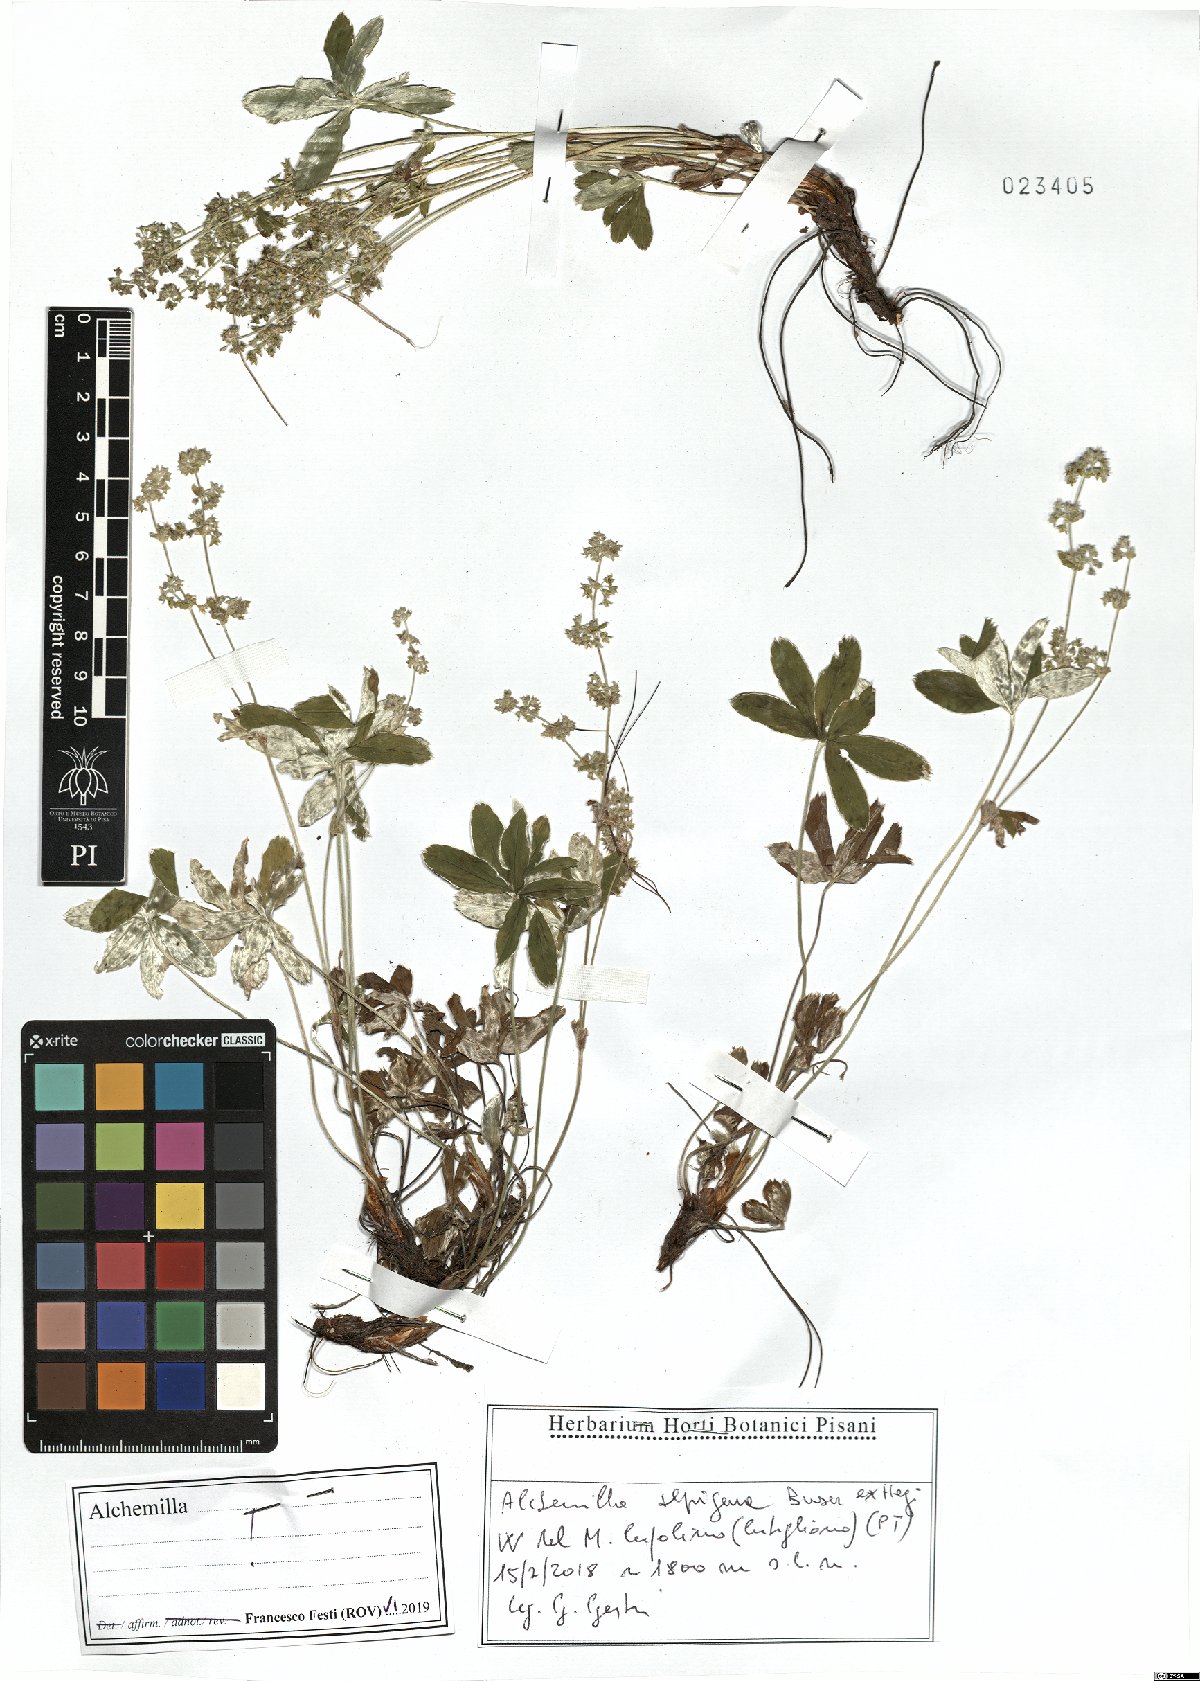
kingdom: Plantae
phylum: Tracheophyta
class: Magnoliopsida
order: Rosales
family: Rosaceae
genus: Alchemilla
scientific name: Alchemilla alpigena
